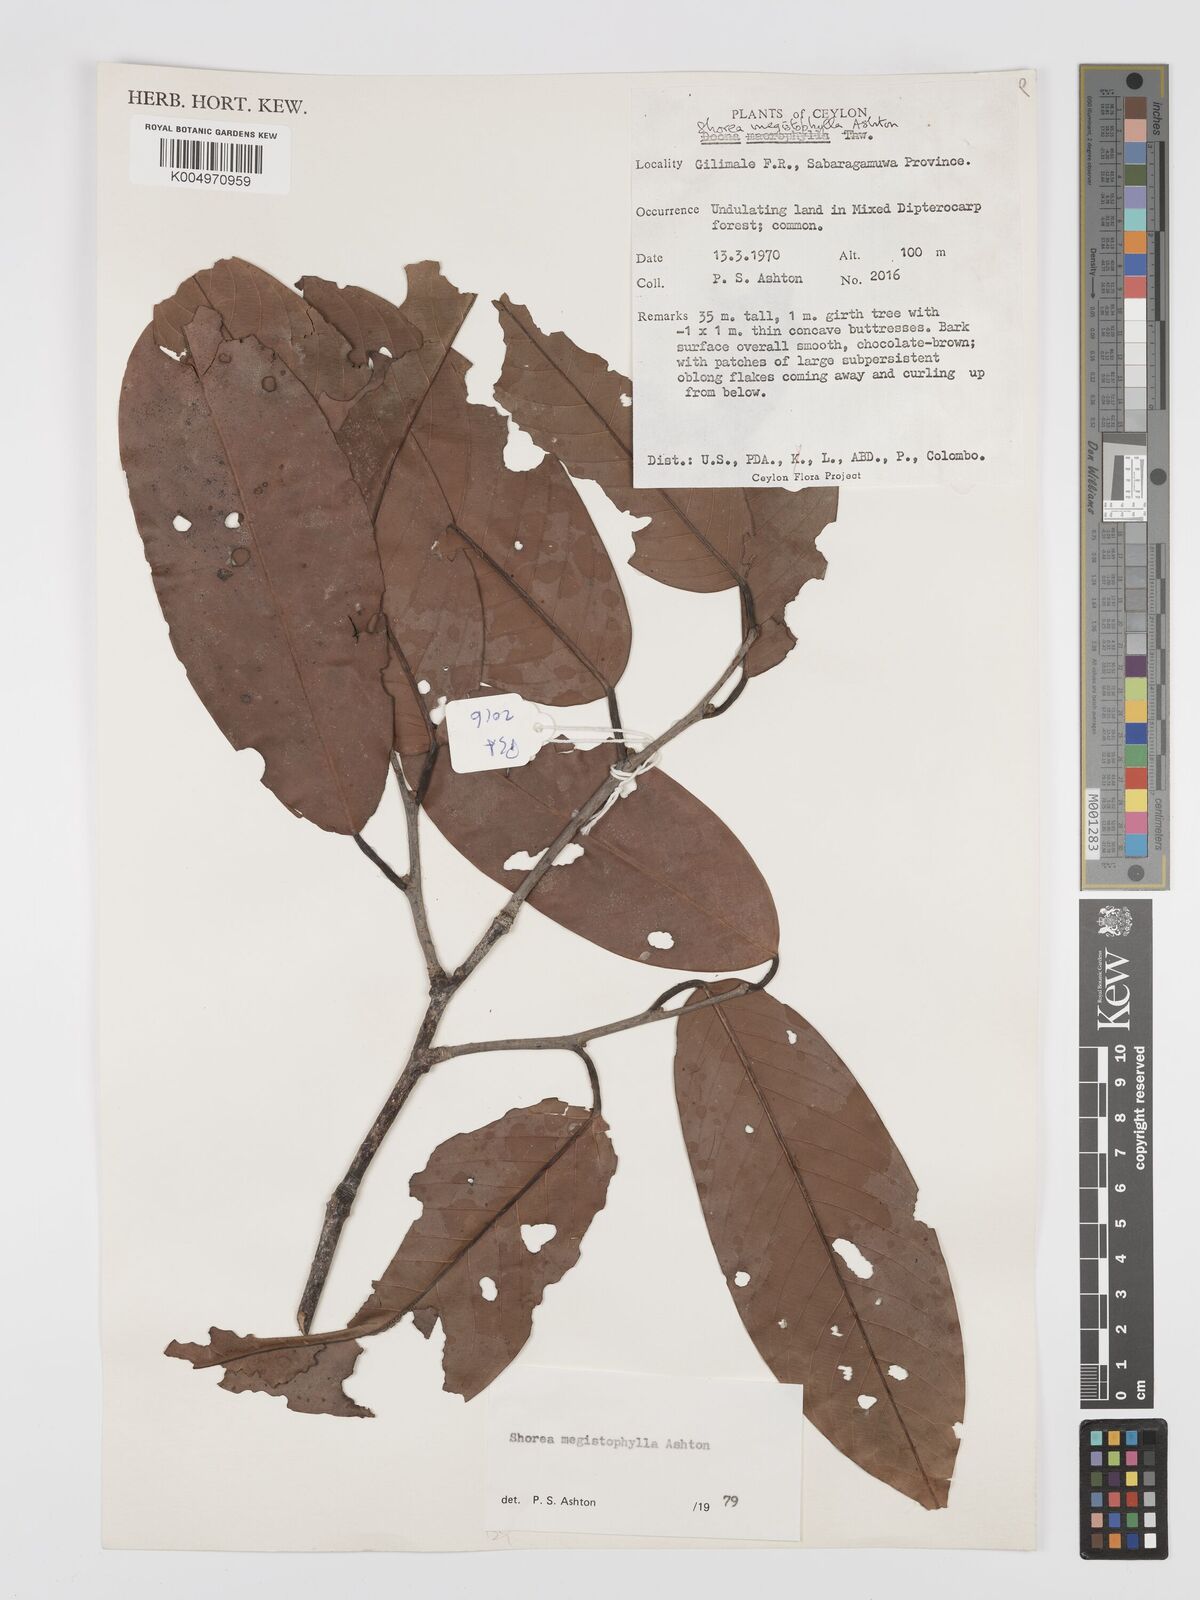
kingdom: Plantae
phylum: Tracheophyta
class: Magnoliopsida
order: Malvales
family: Dipterocarpaceae
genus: Doona
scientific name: Doona macrophylla
